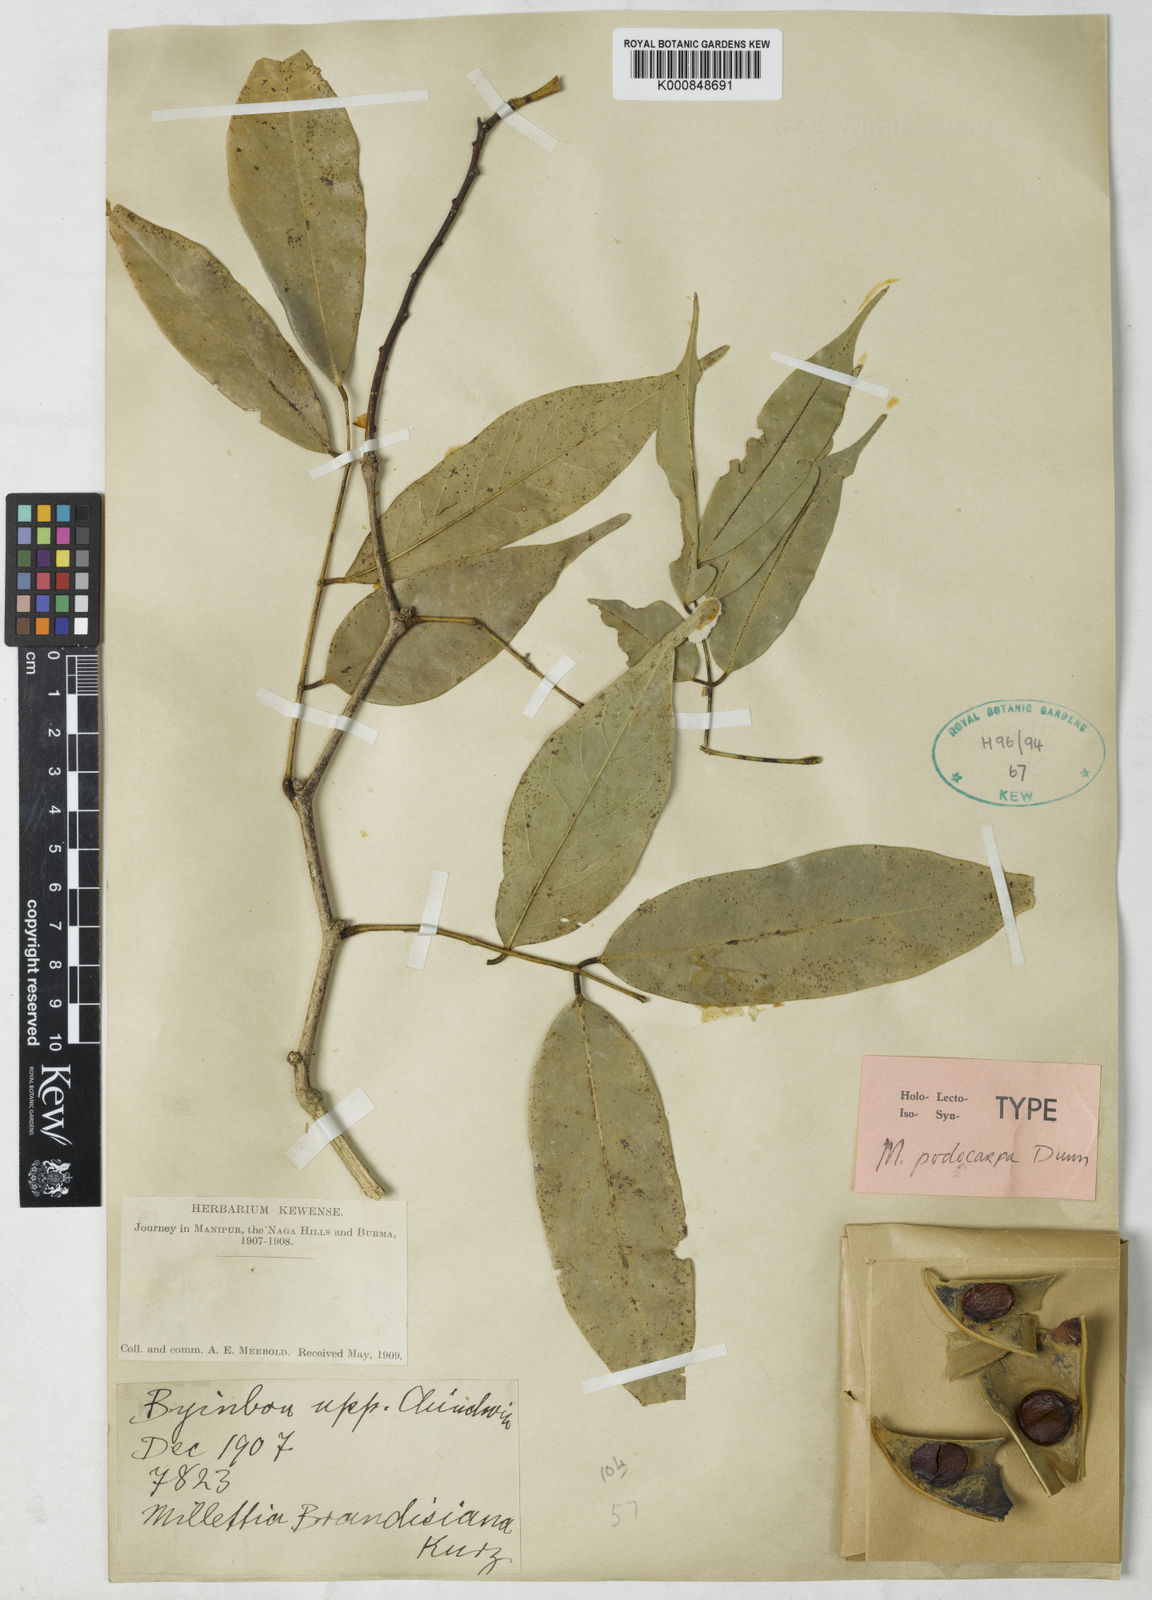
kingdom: Plantae
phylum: Tracheophyta
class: Magnoliopsida
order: Fabales
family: Fabaceae
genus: Millettia
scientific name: Millettia podocarpa
